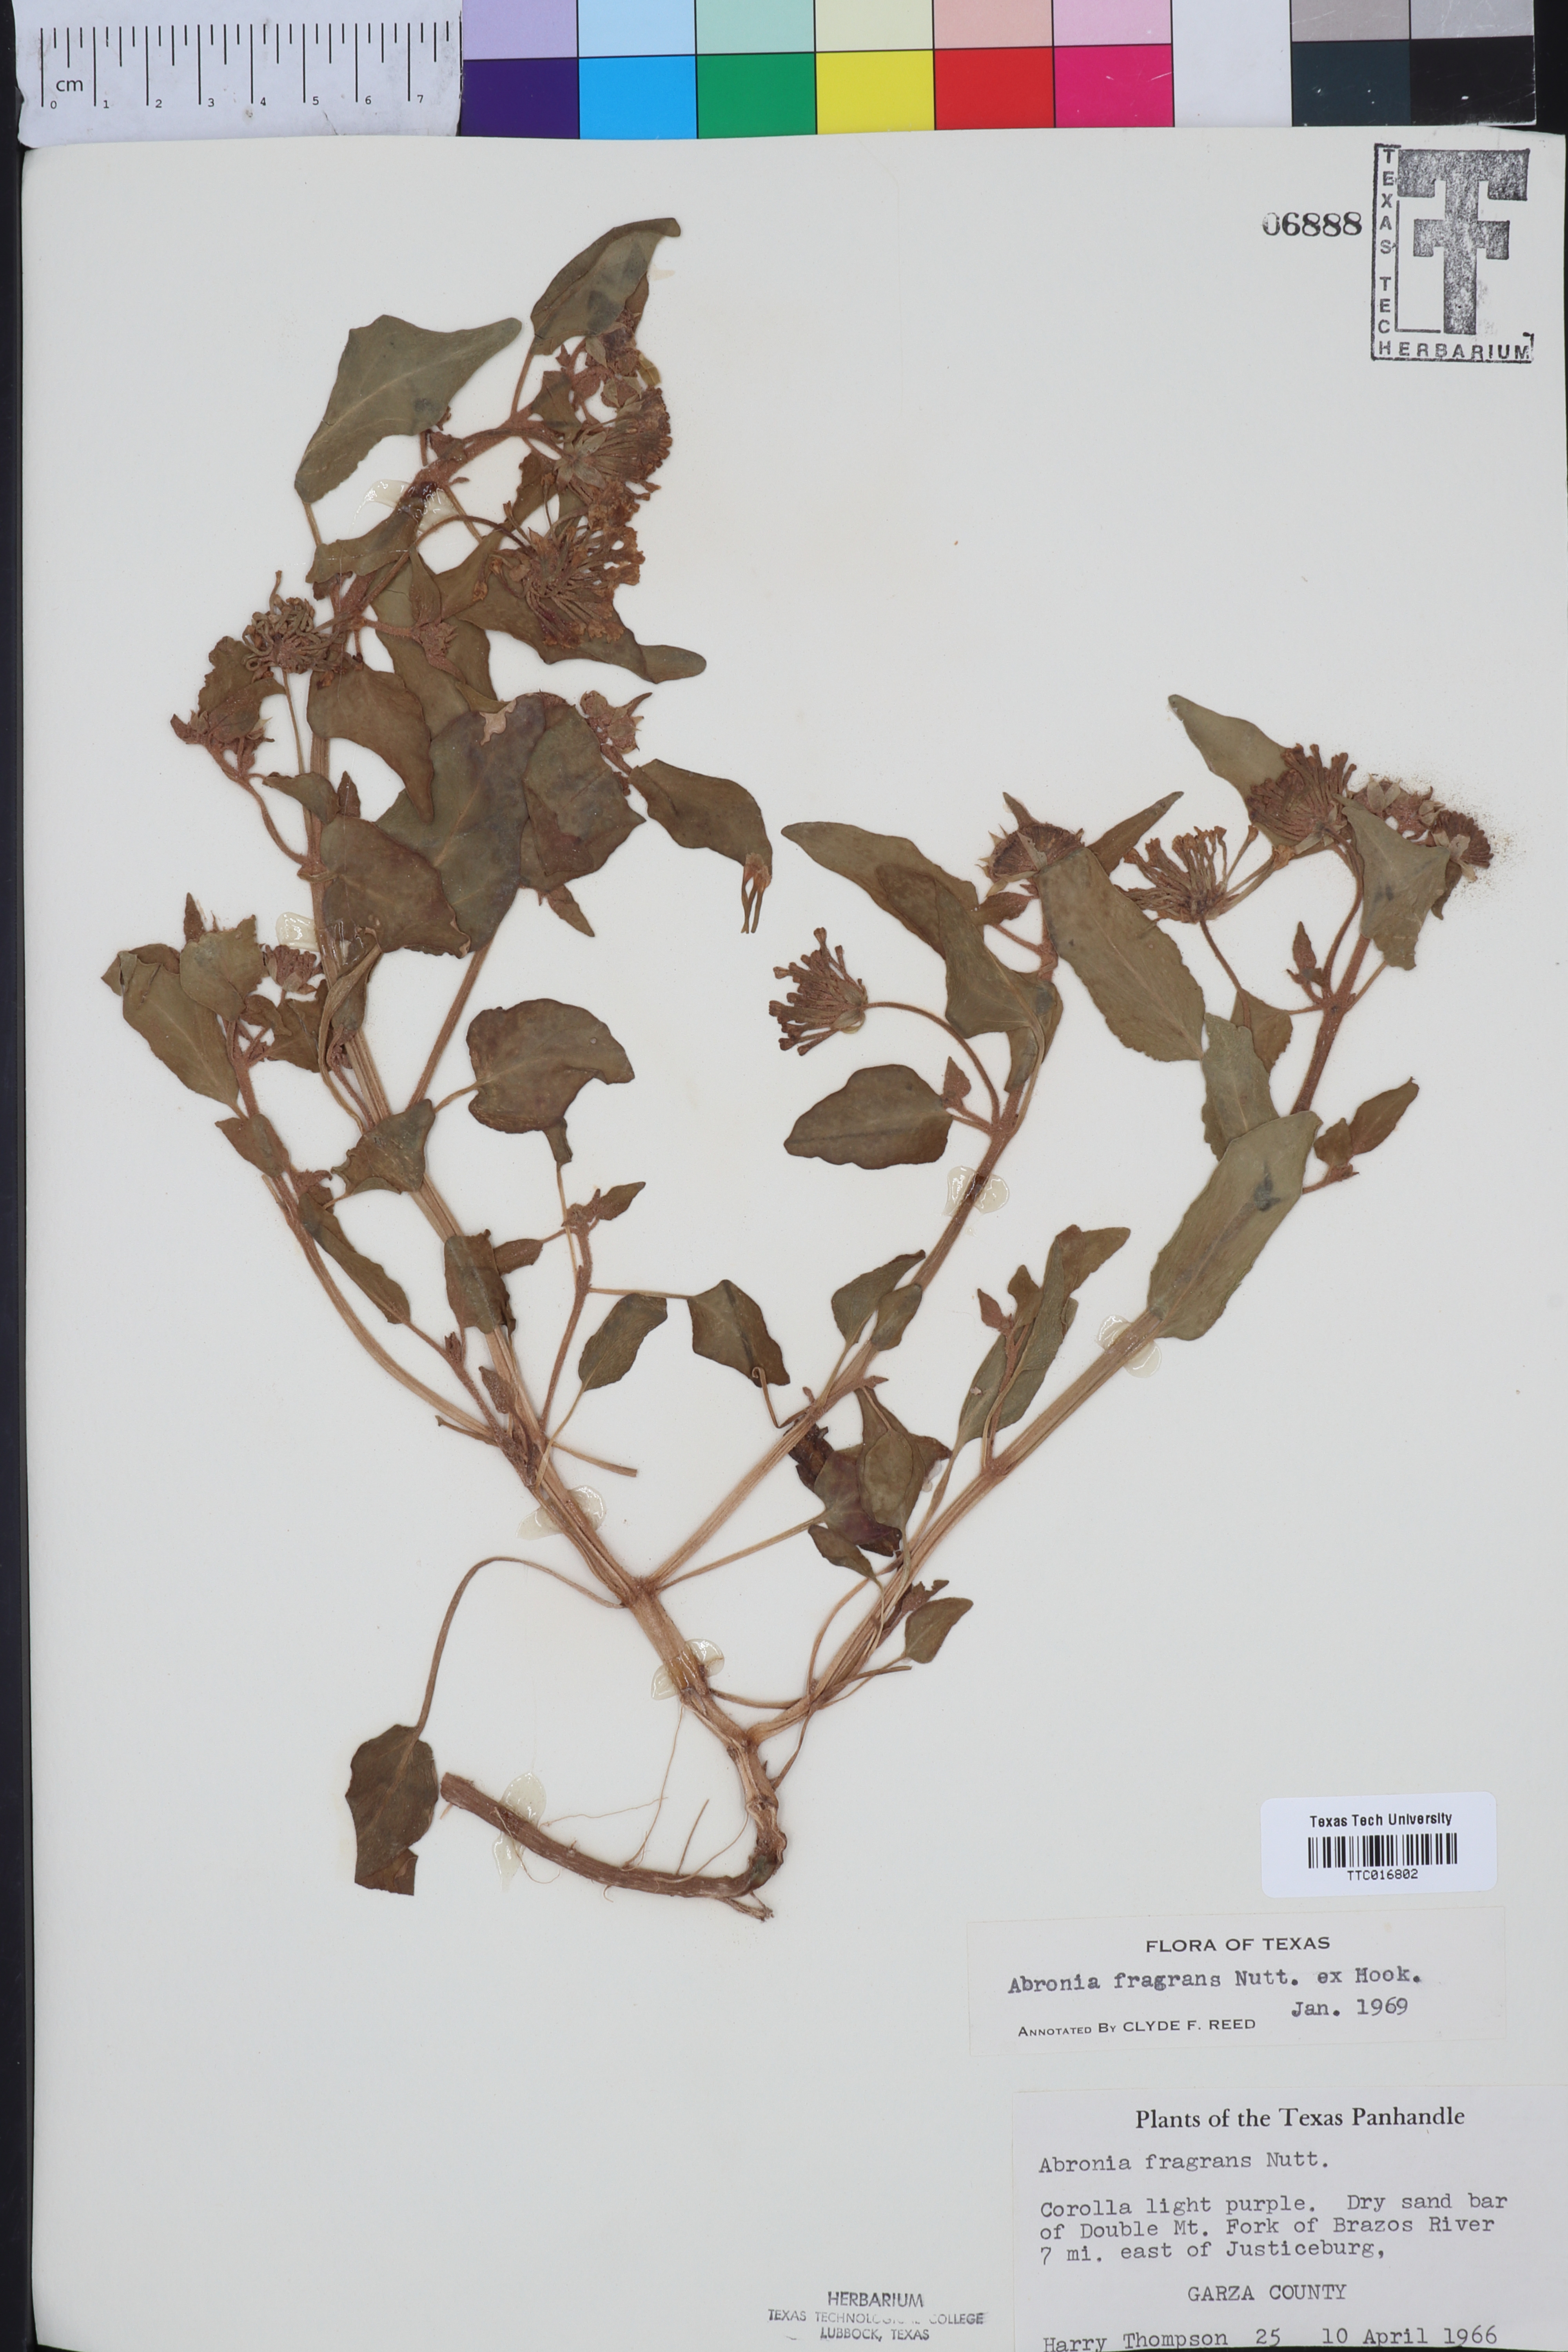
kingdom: Plantae
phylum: Tracheophyta
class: Magnoliopsida
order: Caryophyllales
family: Nyctaginaceae
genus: Abronia
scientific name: Abronia fragrans
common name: Fragrant sand-verbena
